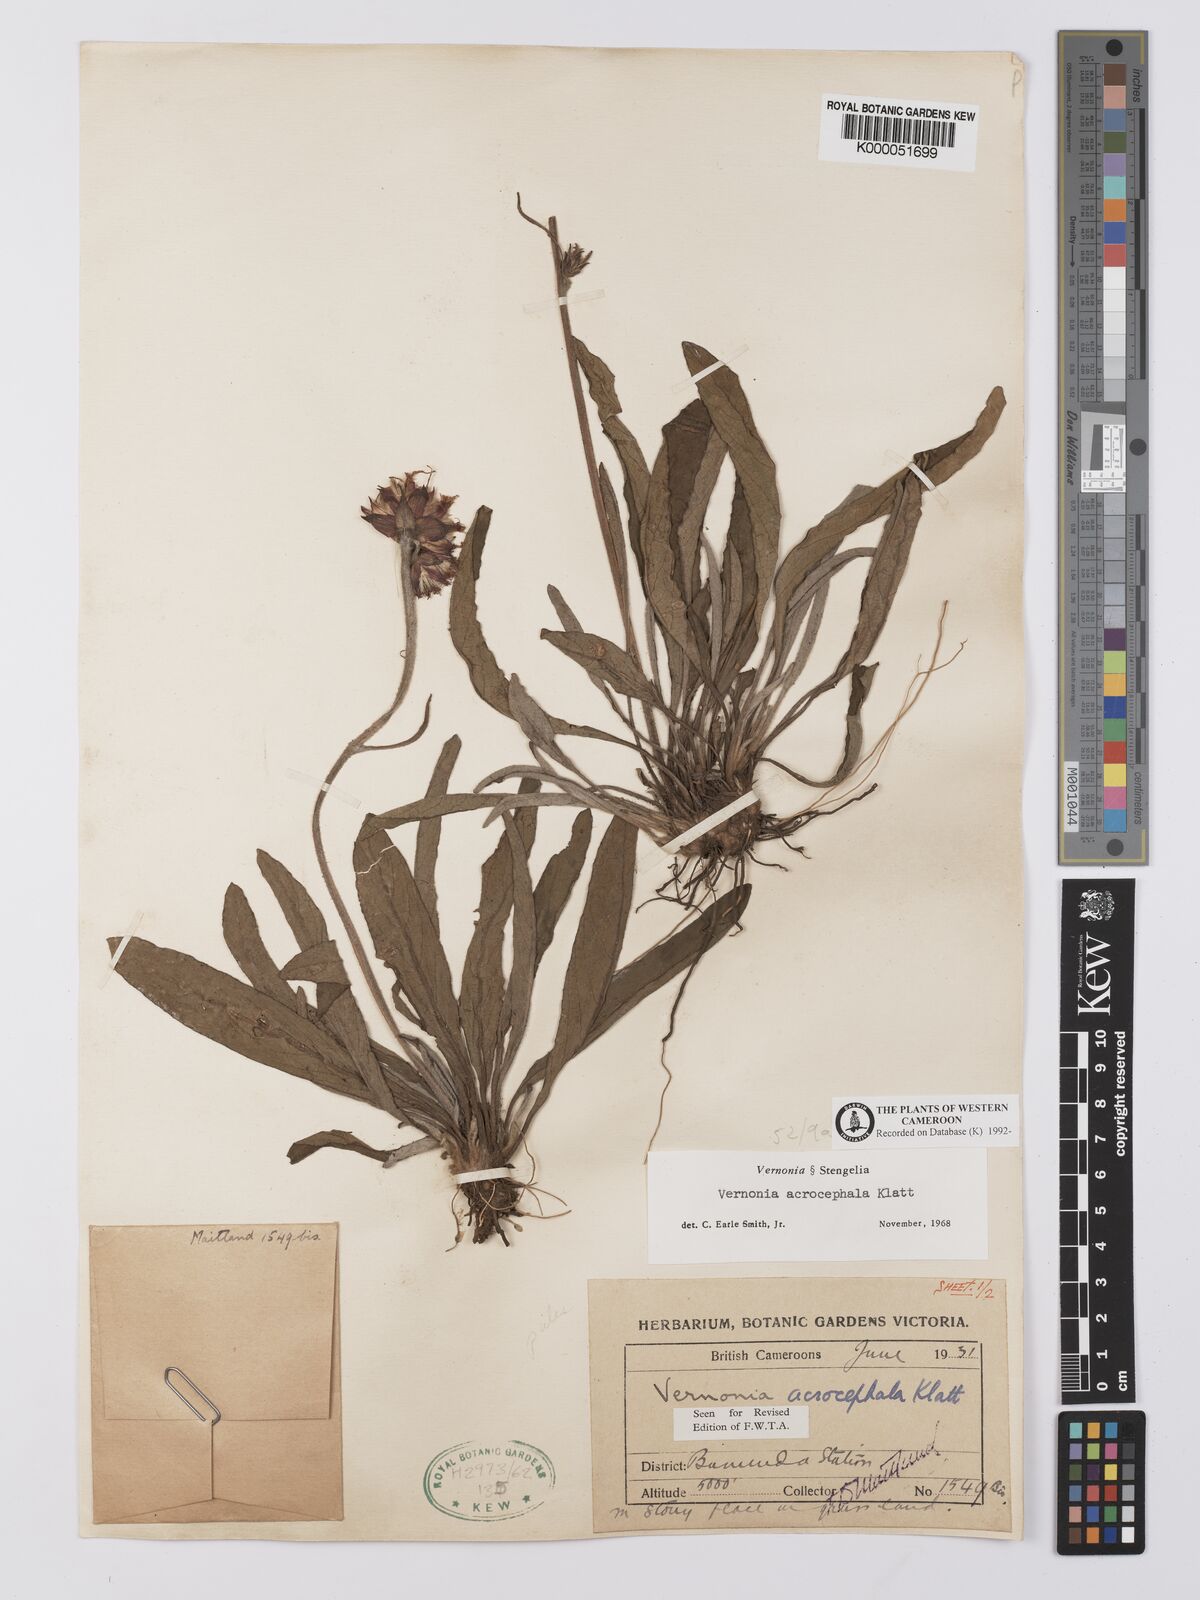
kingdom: Plantae
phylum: Tracheophyta
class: Magnoliopsida
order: Asterales
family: Asteraceae
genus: Vernonella
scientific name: Vernonella acrocephala
